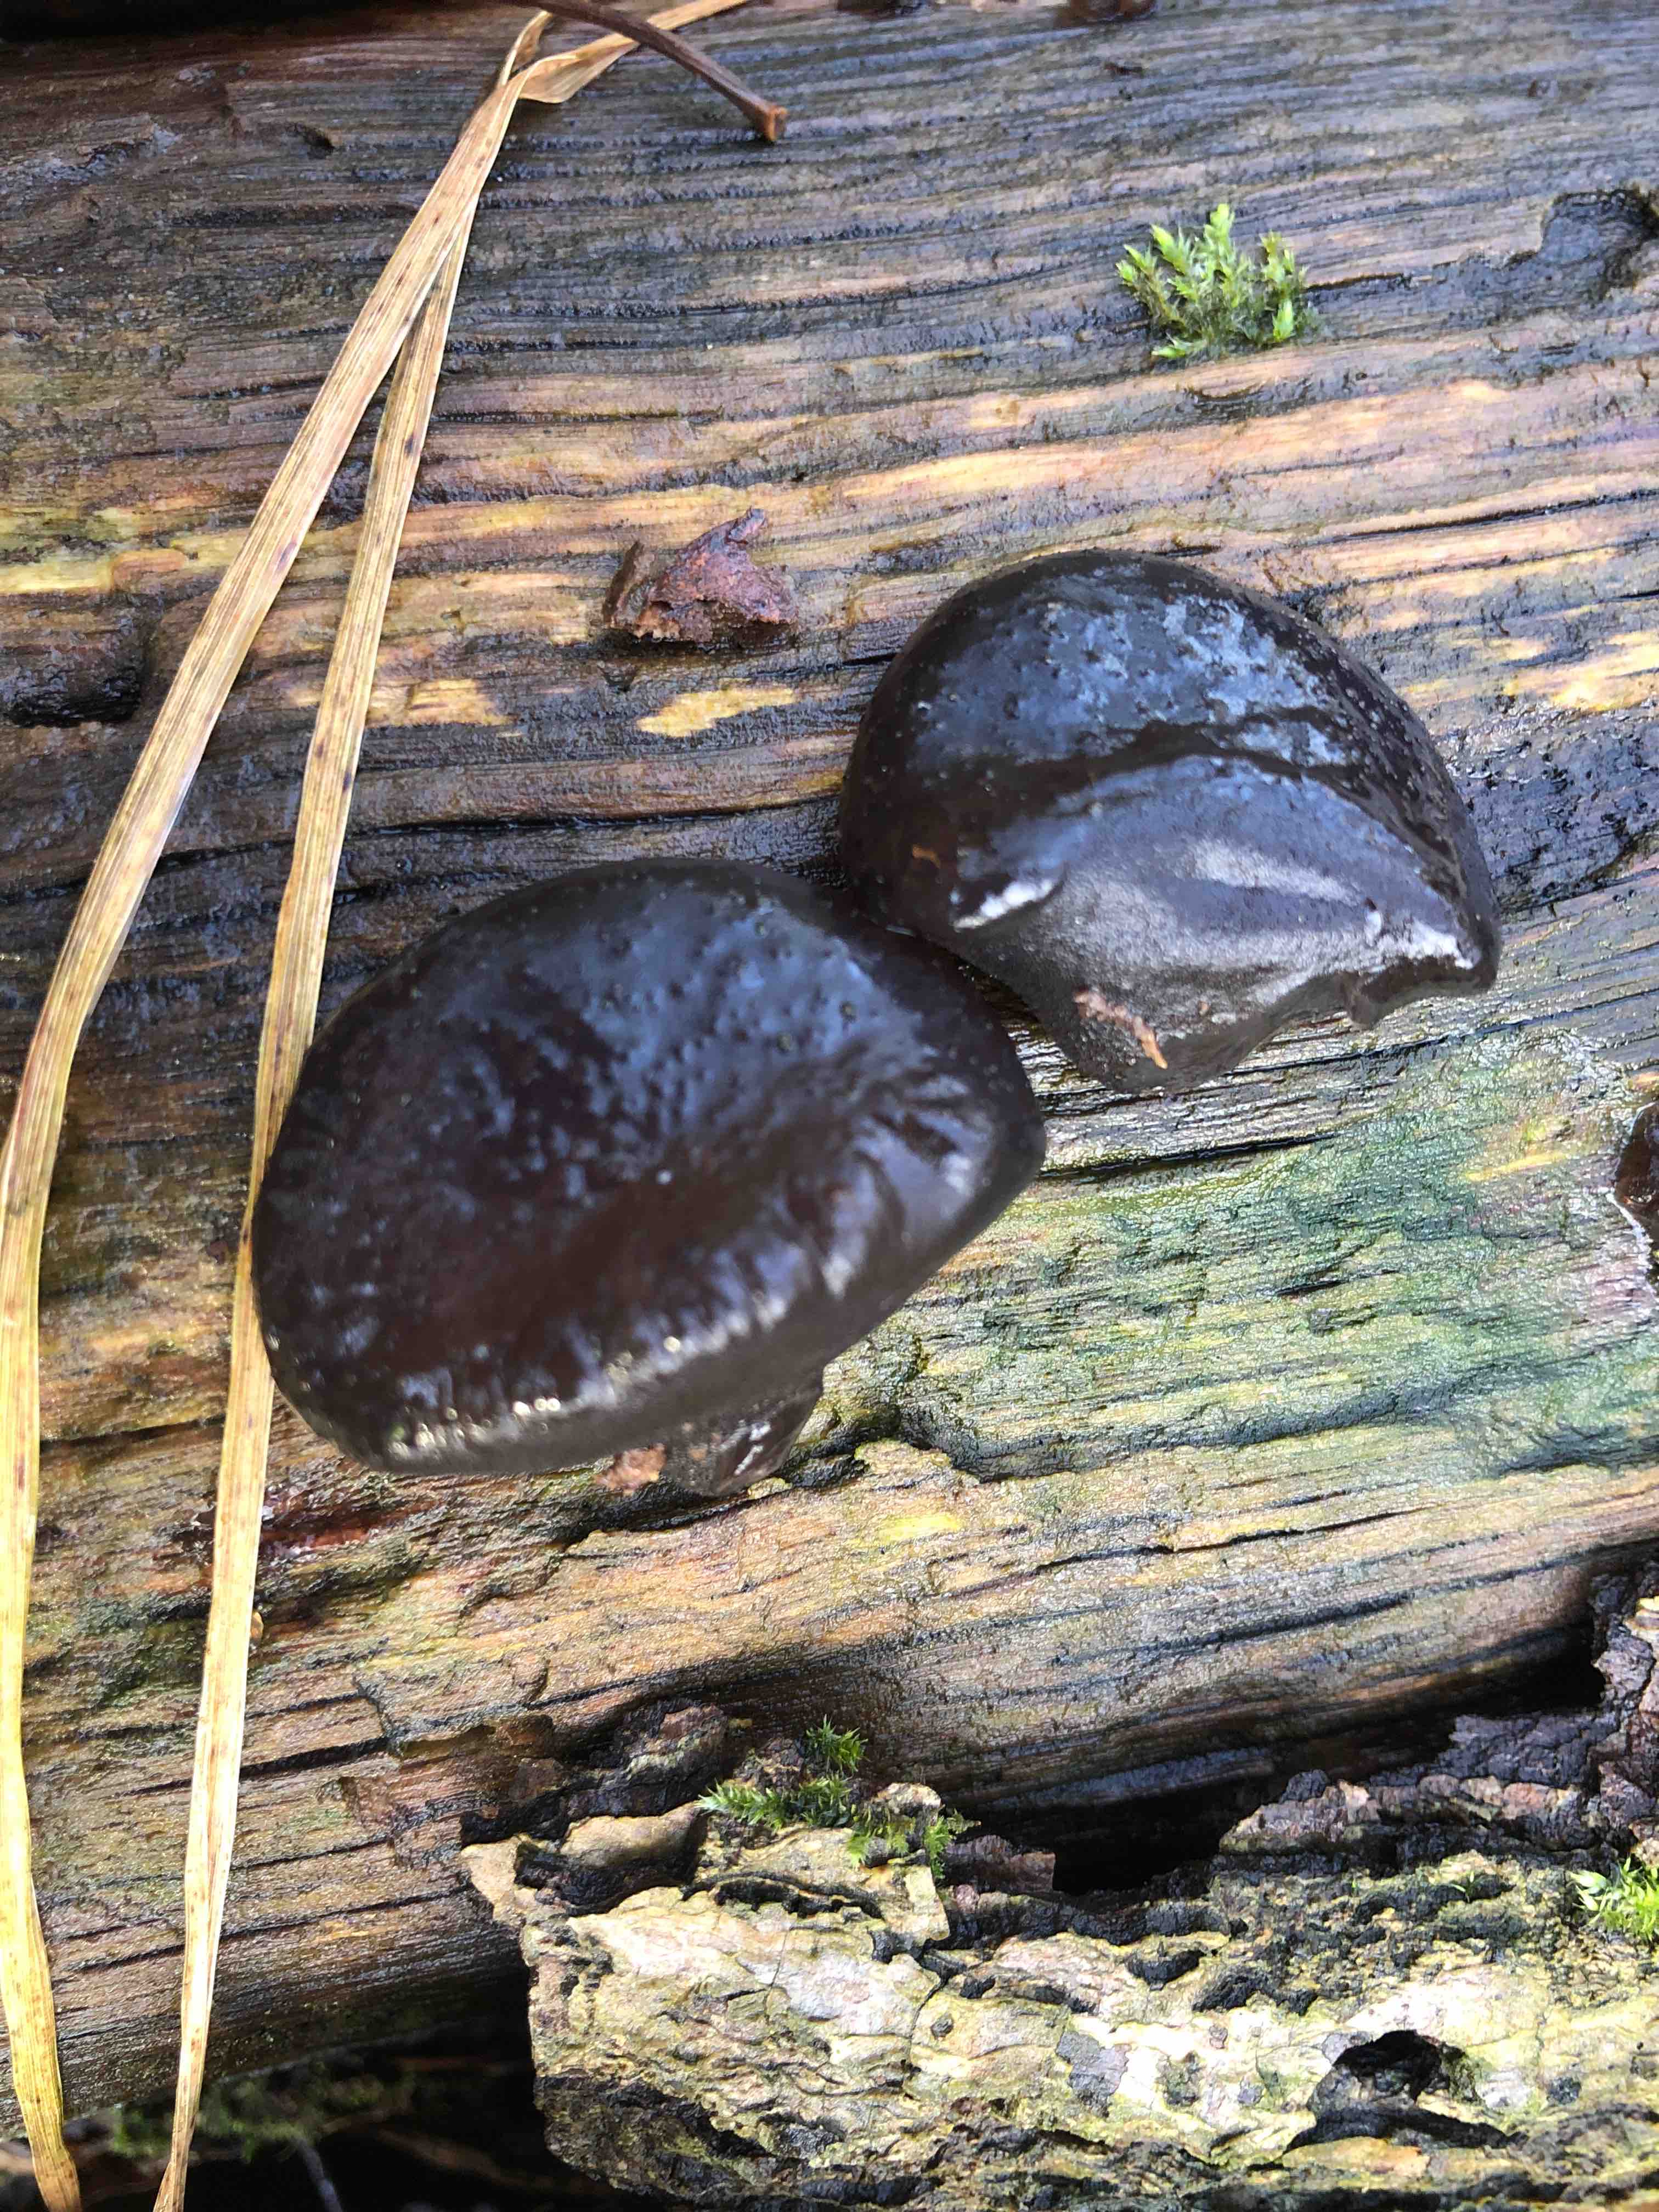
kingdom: Fungi
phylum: Basidiomycota
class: Agaricomycetes
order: Auriculariales
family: Auriculariaceae
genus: Exidia
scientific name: Exidia glandulosa
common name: ege-bævretop
